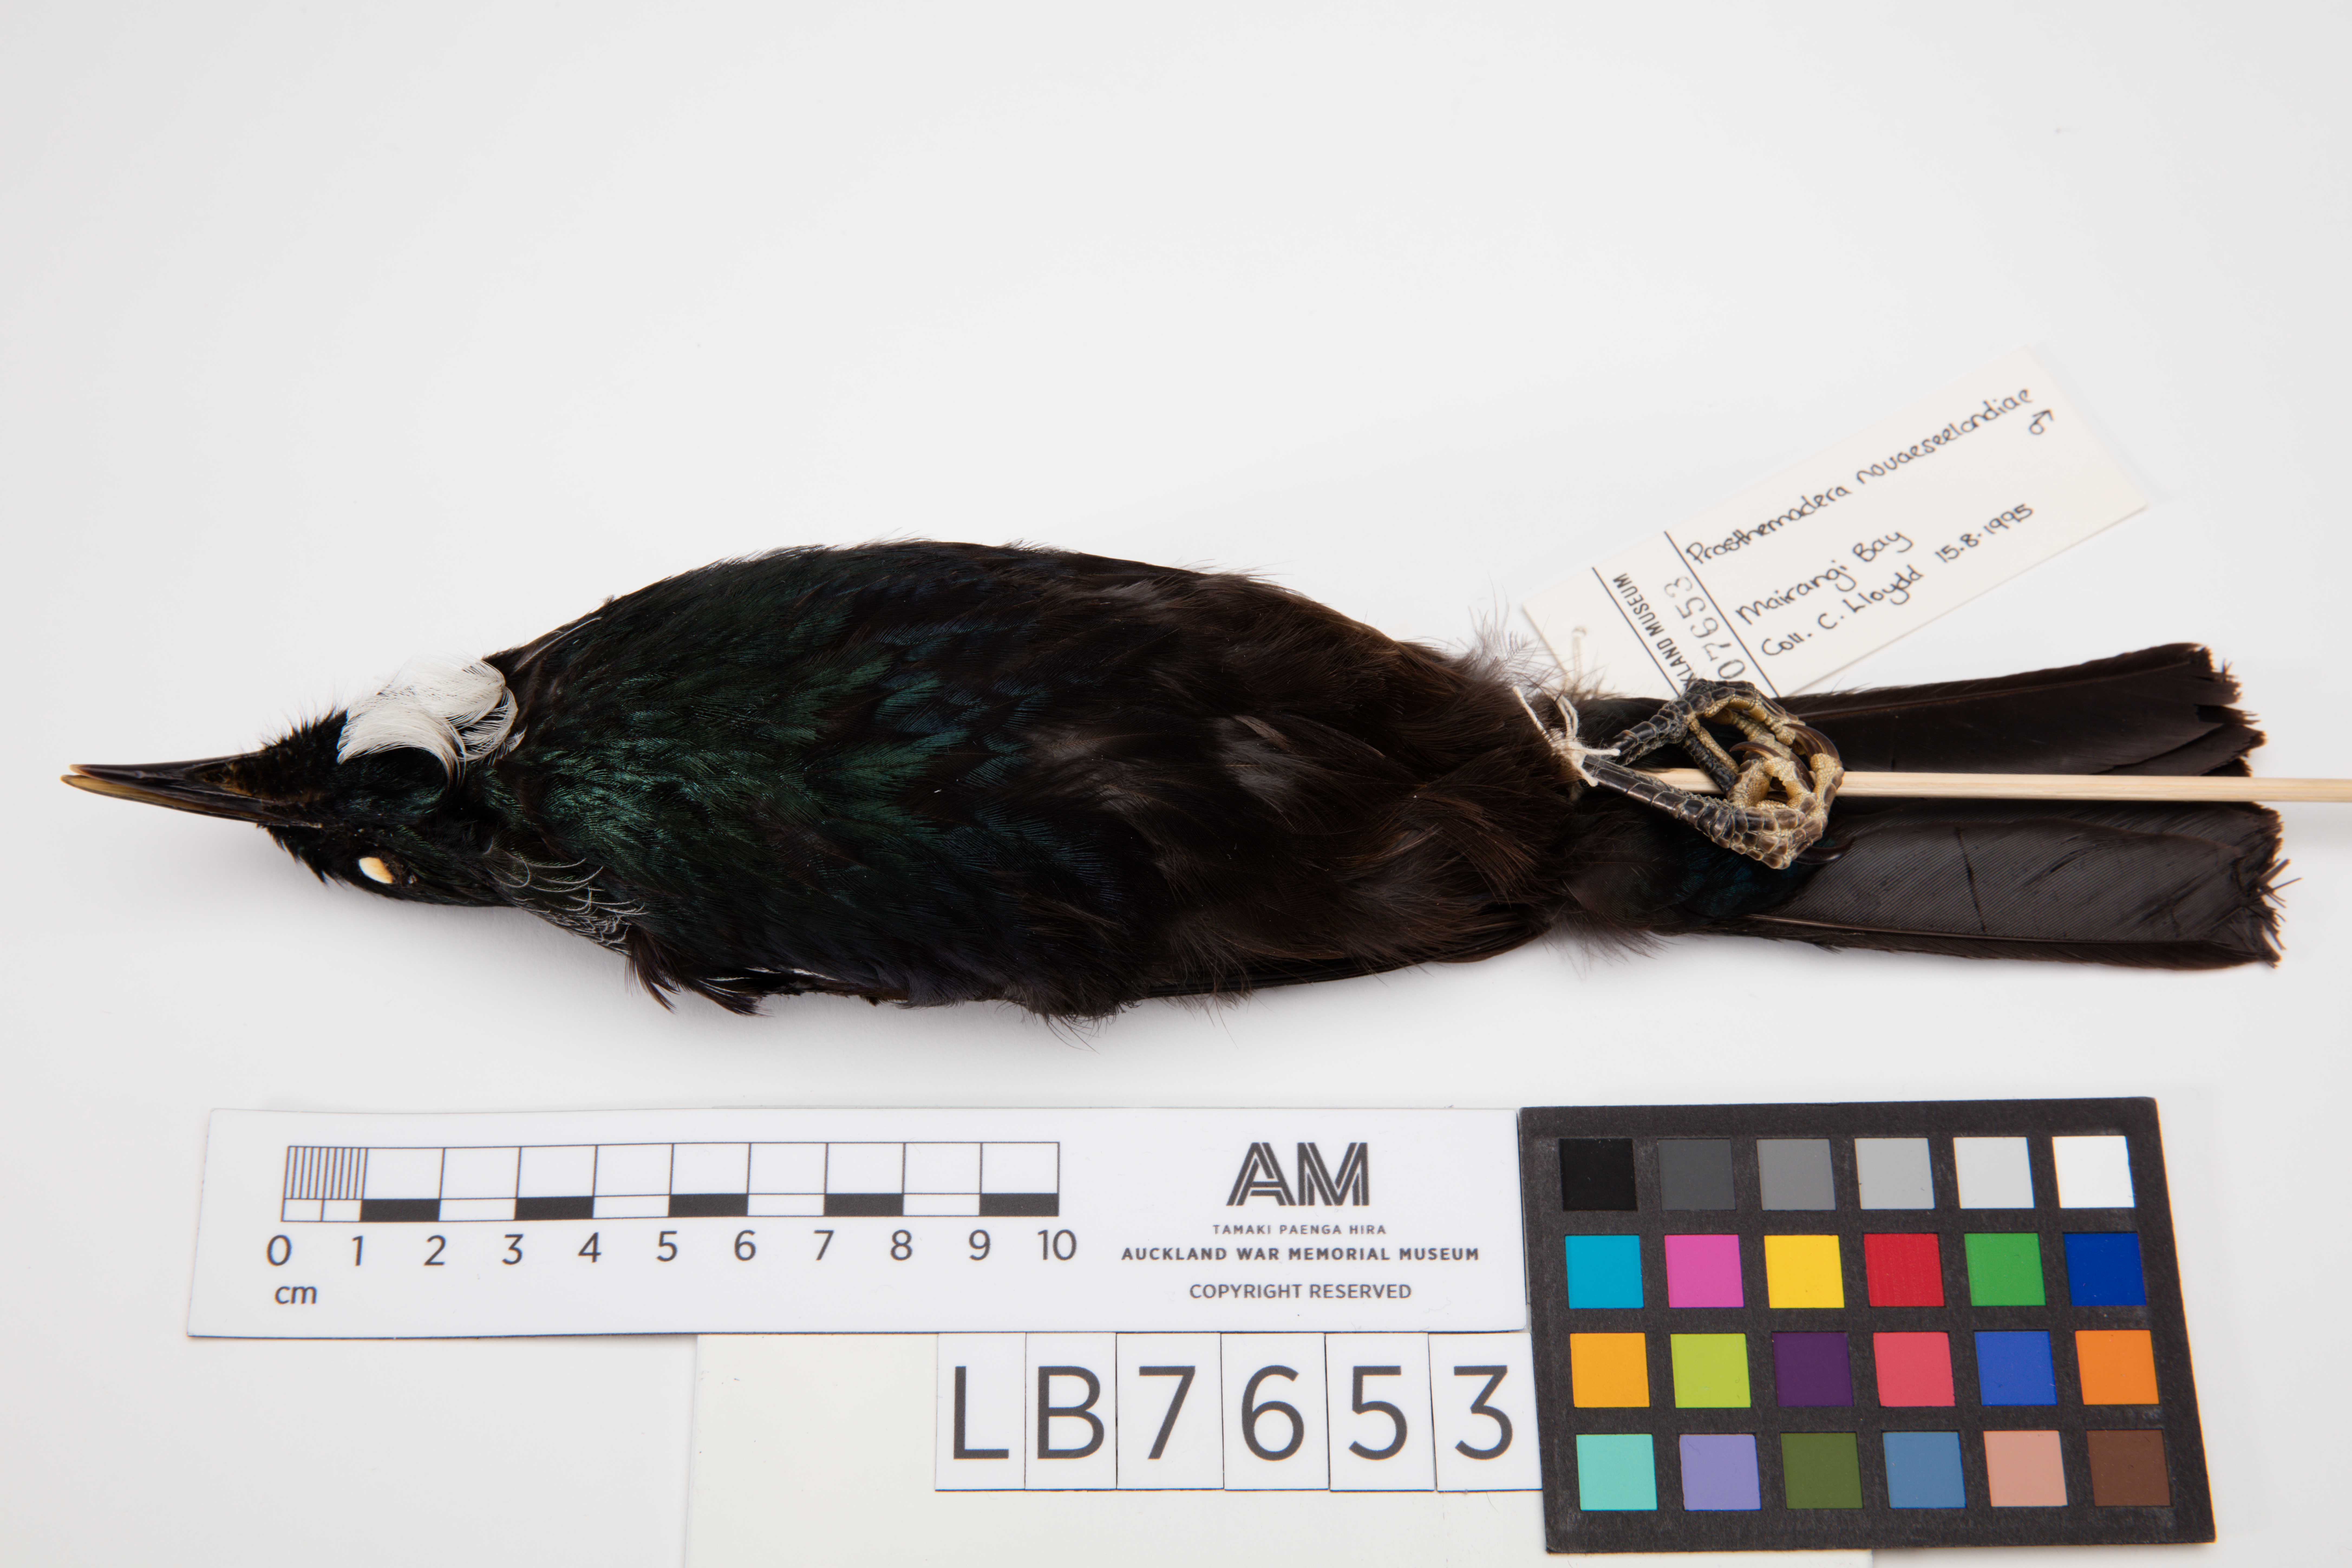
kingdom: Animalia
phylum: Chordata
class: Aves
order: Passeriformes
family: Meliphagidae
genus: Prosthemadera
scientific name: Prosthemadera novaeseelandiae
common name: Tui
